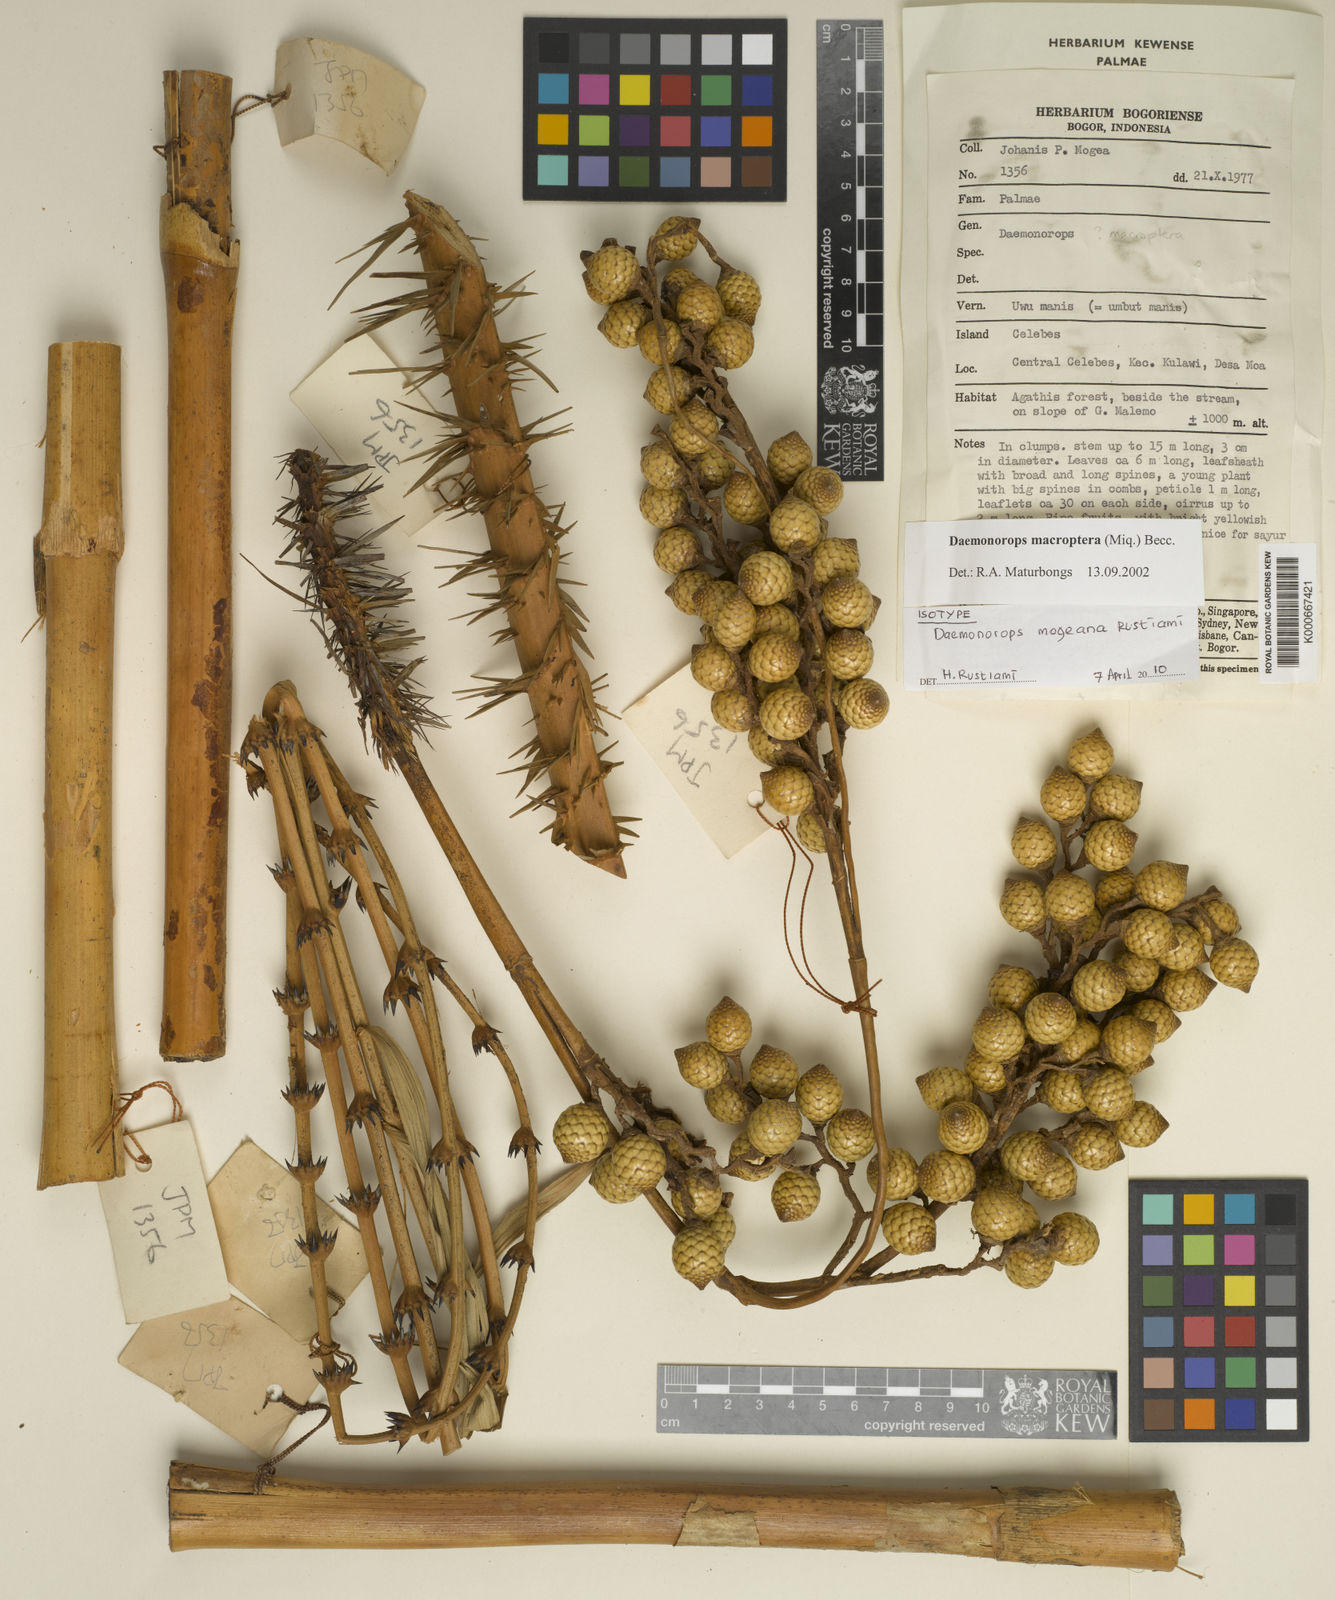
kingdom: Plantae
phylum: Tracheophyta
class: Liliopsida
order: Arecales
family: Arecaceae
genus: Calamus
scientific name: Calamus validus
